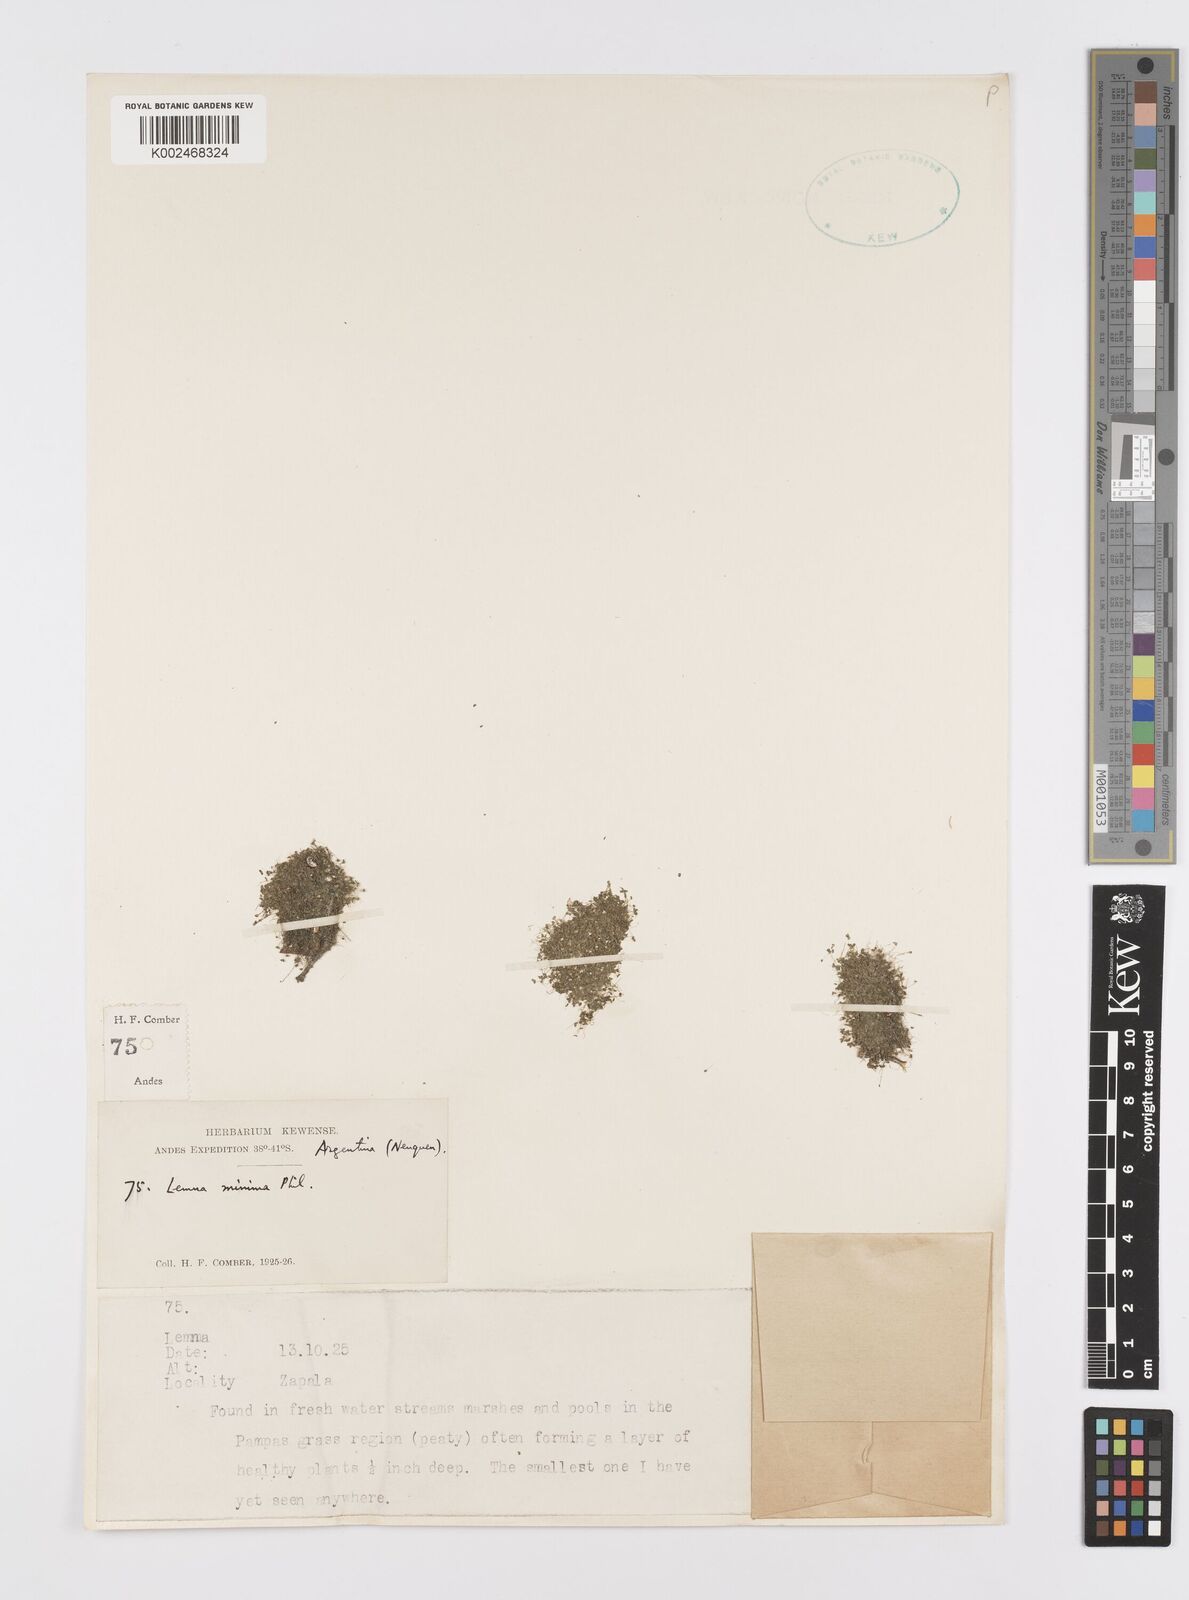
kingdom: Plantae
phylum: Tracheophyta
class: Liliopsida
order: Alismatales
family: Araceae
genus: Lemna
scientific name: Lemna minuta
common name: Least duckweed
